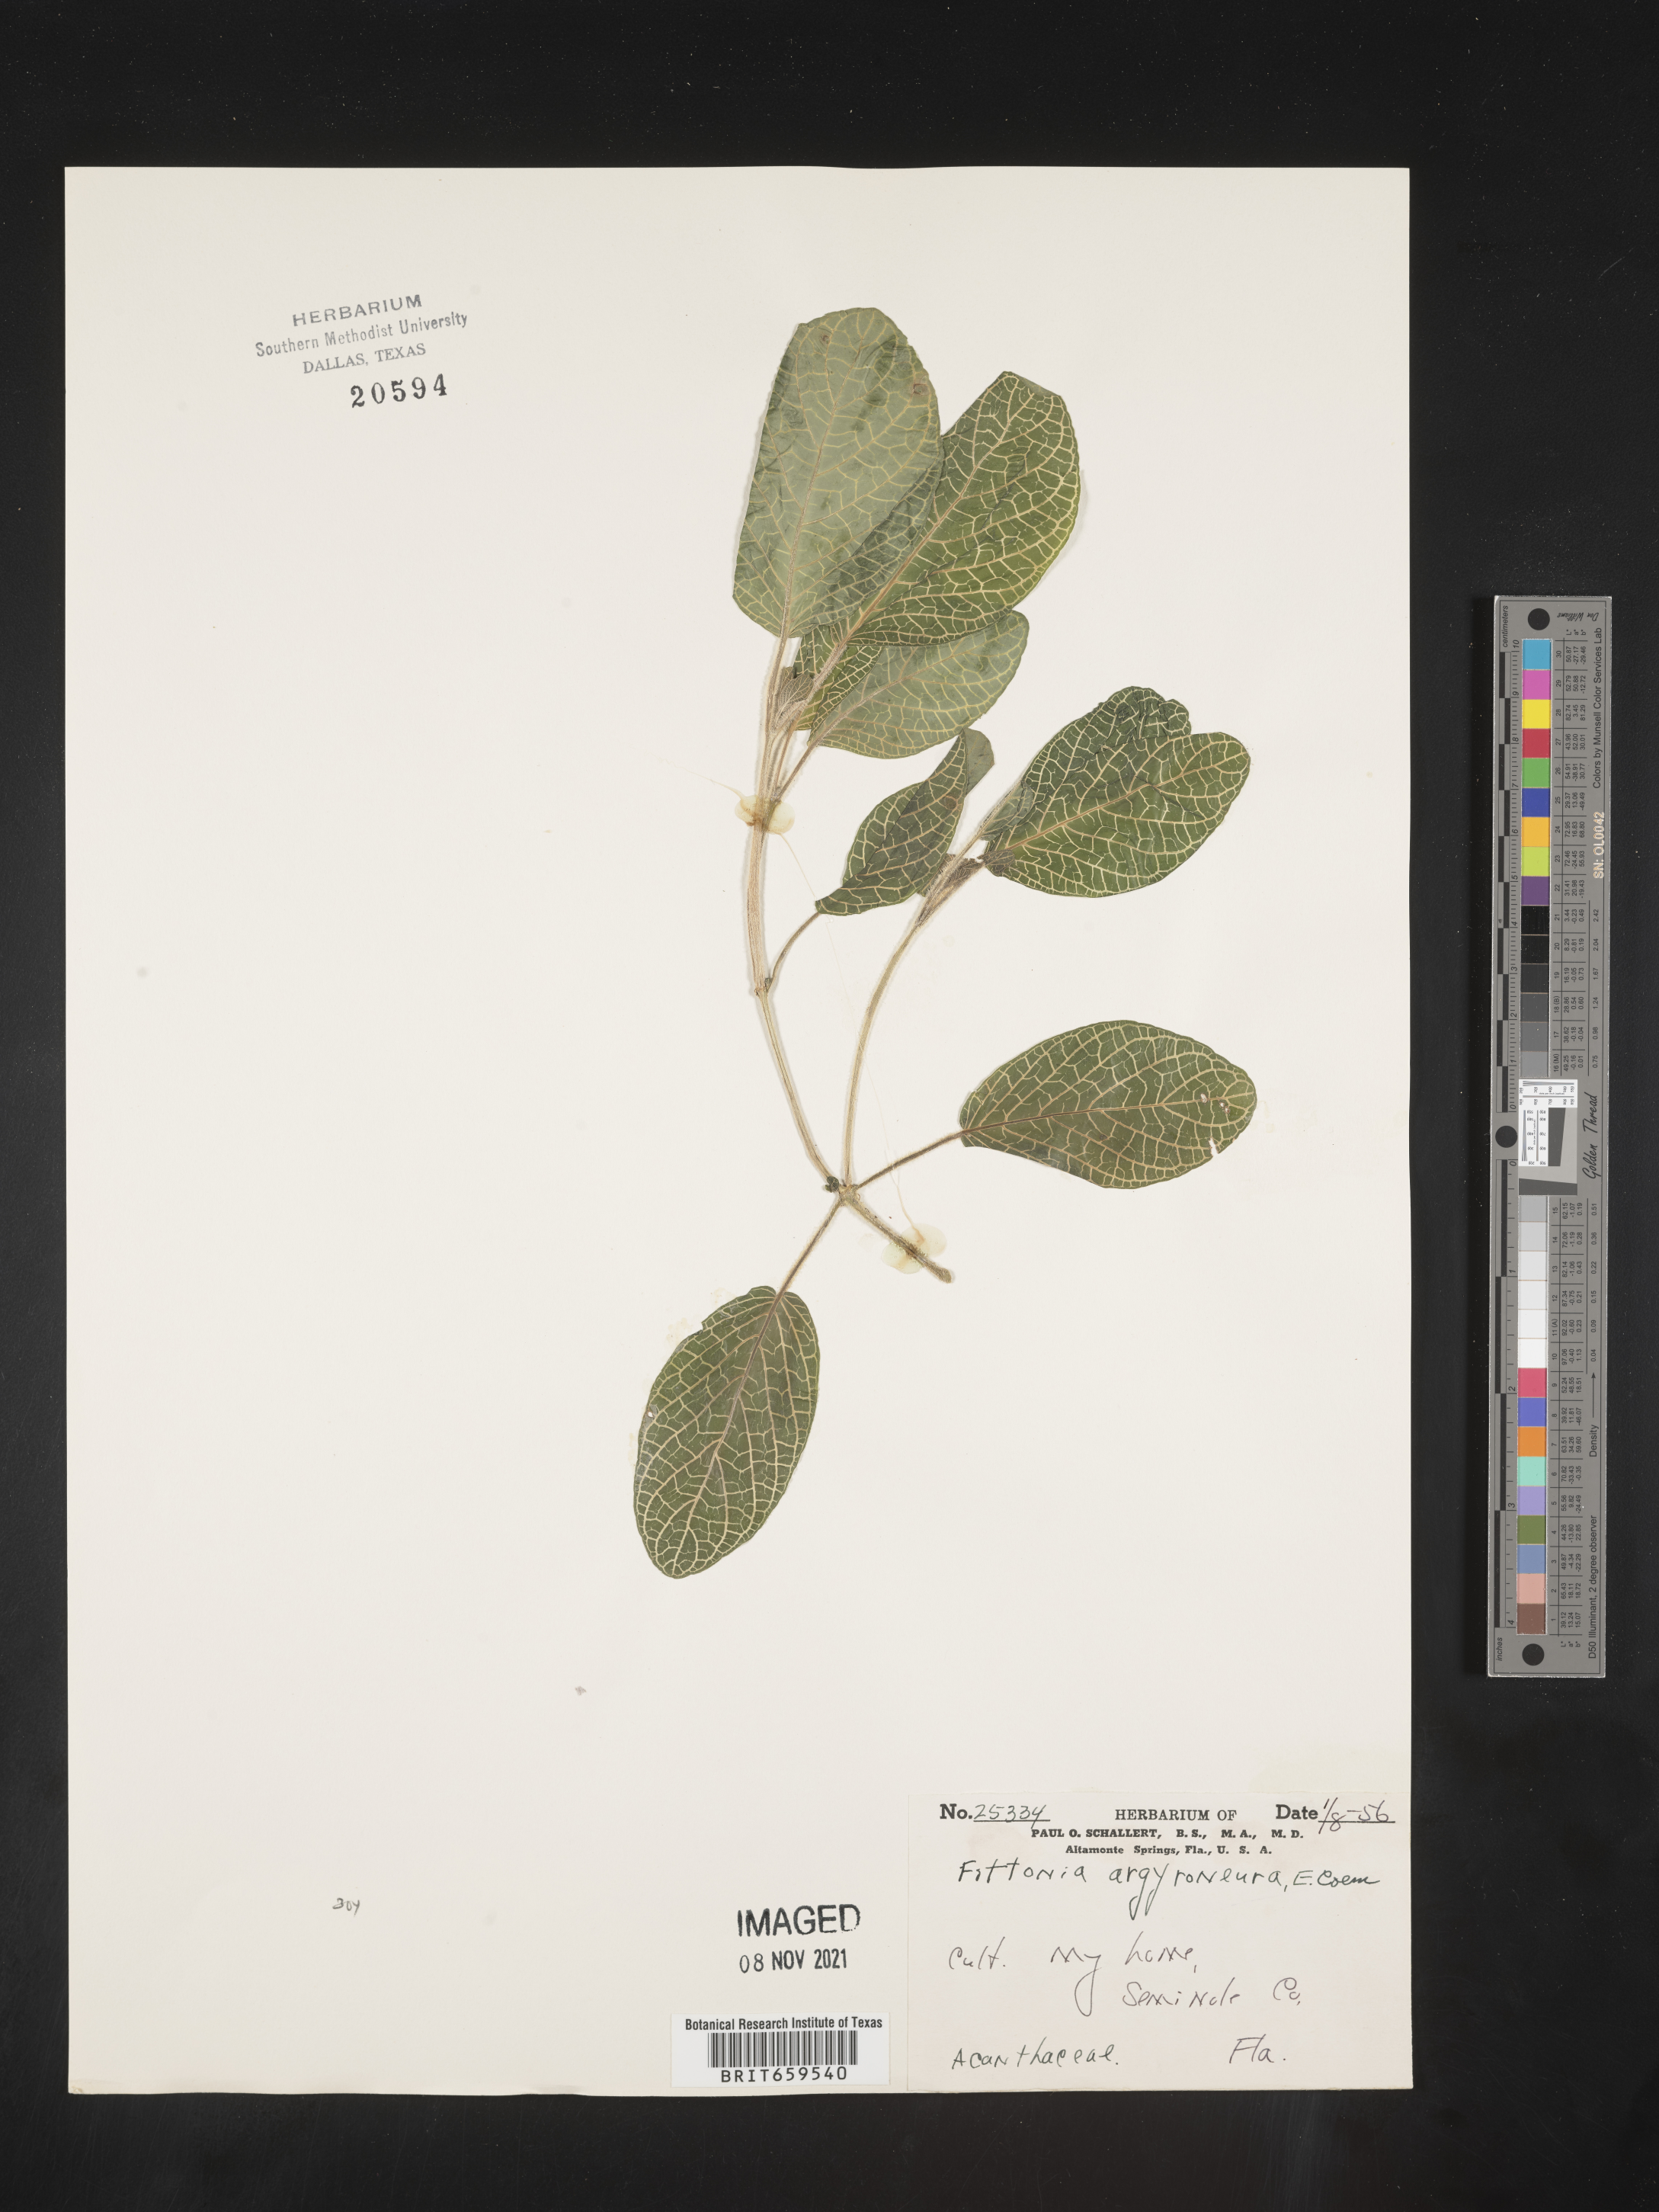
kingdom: Plantae
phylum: Tracheophyta
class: Magnoliopsida
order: Lamiales
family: Acanthaceae
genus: Fittonia
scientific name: Fittonia
